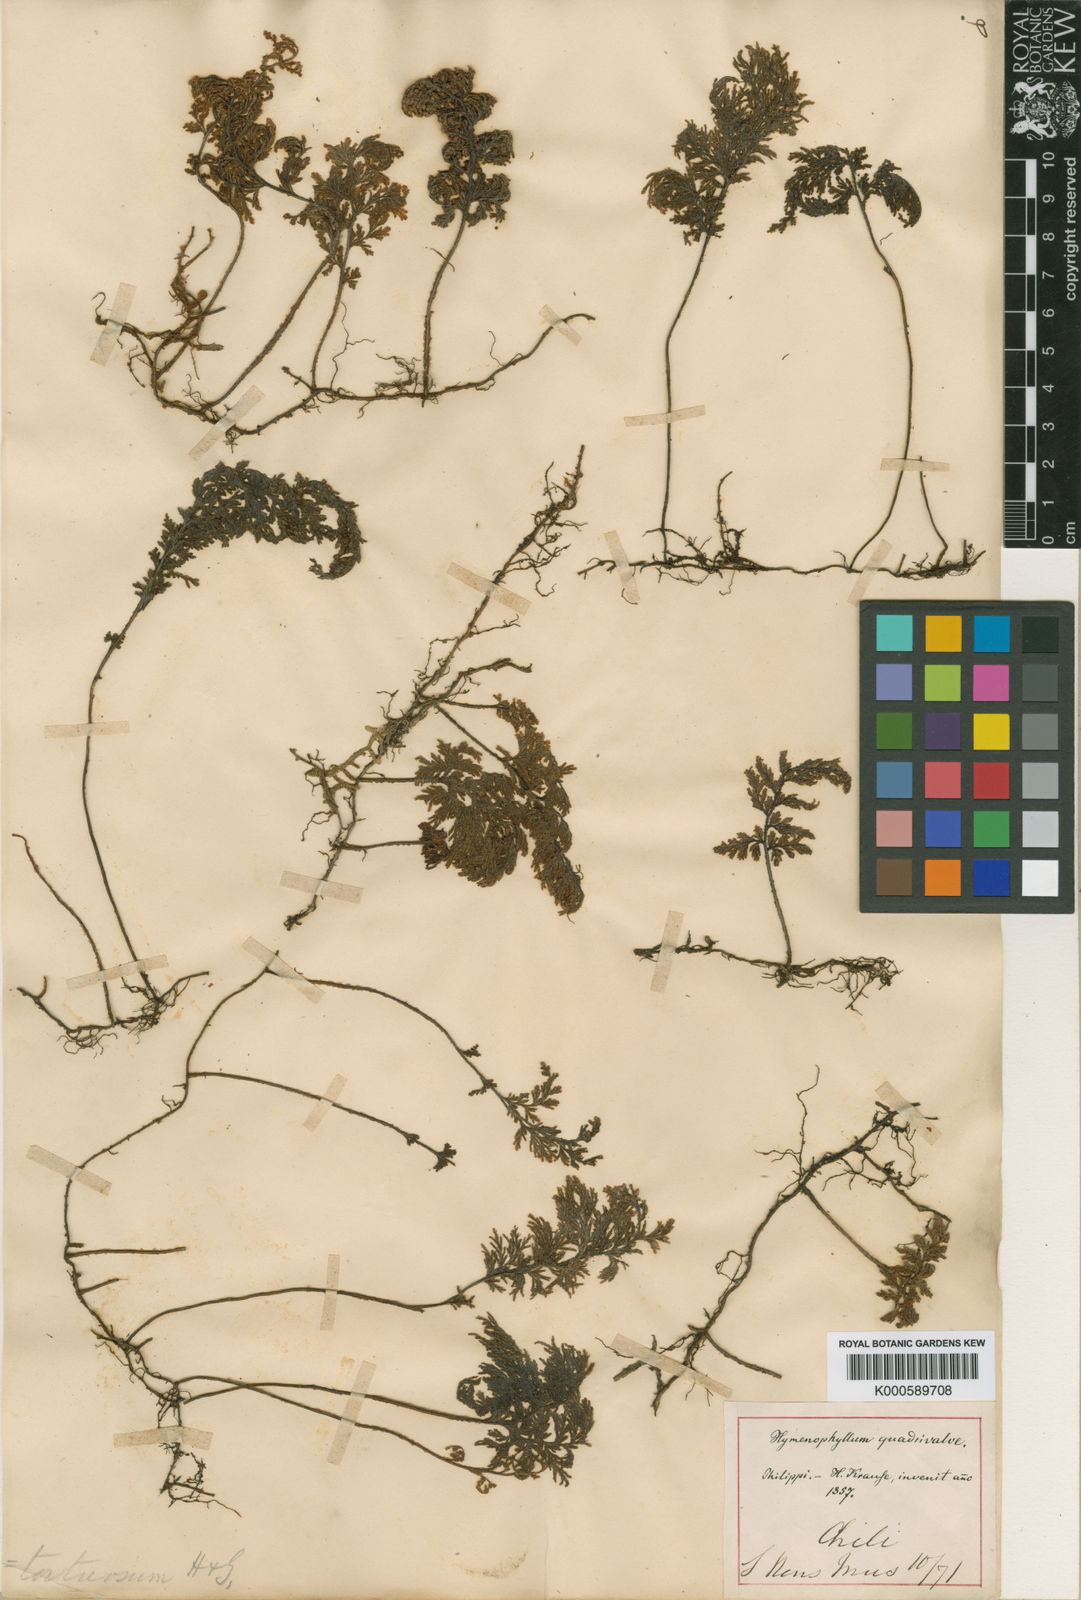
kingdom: Plantae
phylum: Tracheophyta
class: Polypodiopsida
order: Hymenophyllales
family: Hymenophyllaceae
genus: Hymenophyllum
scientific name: Hymenophyllum tortuosum
